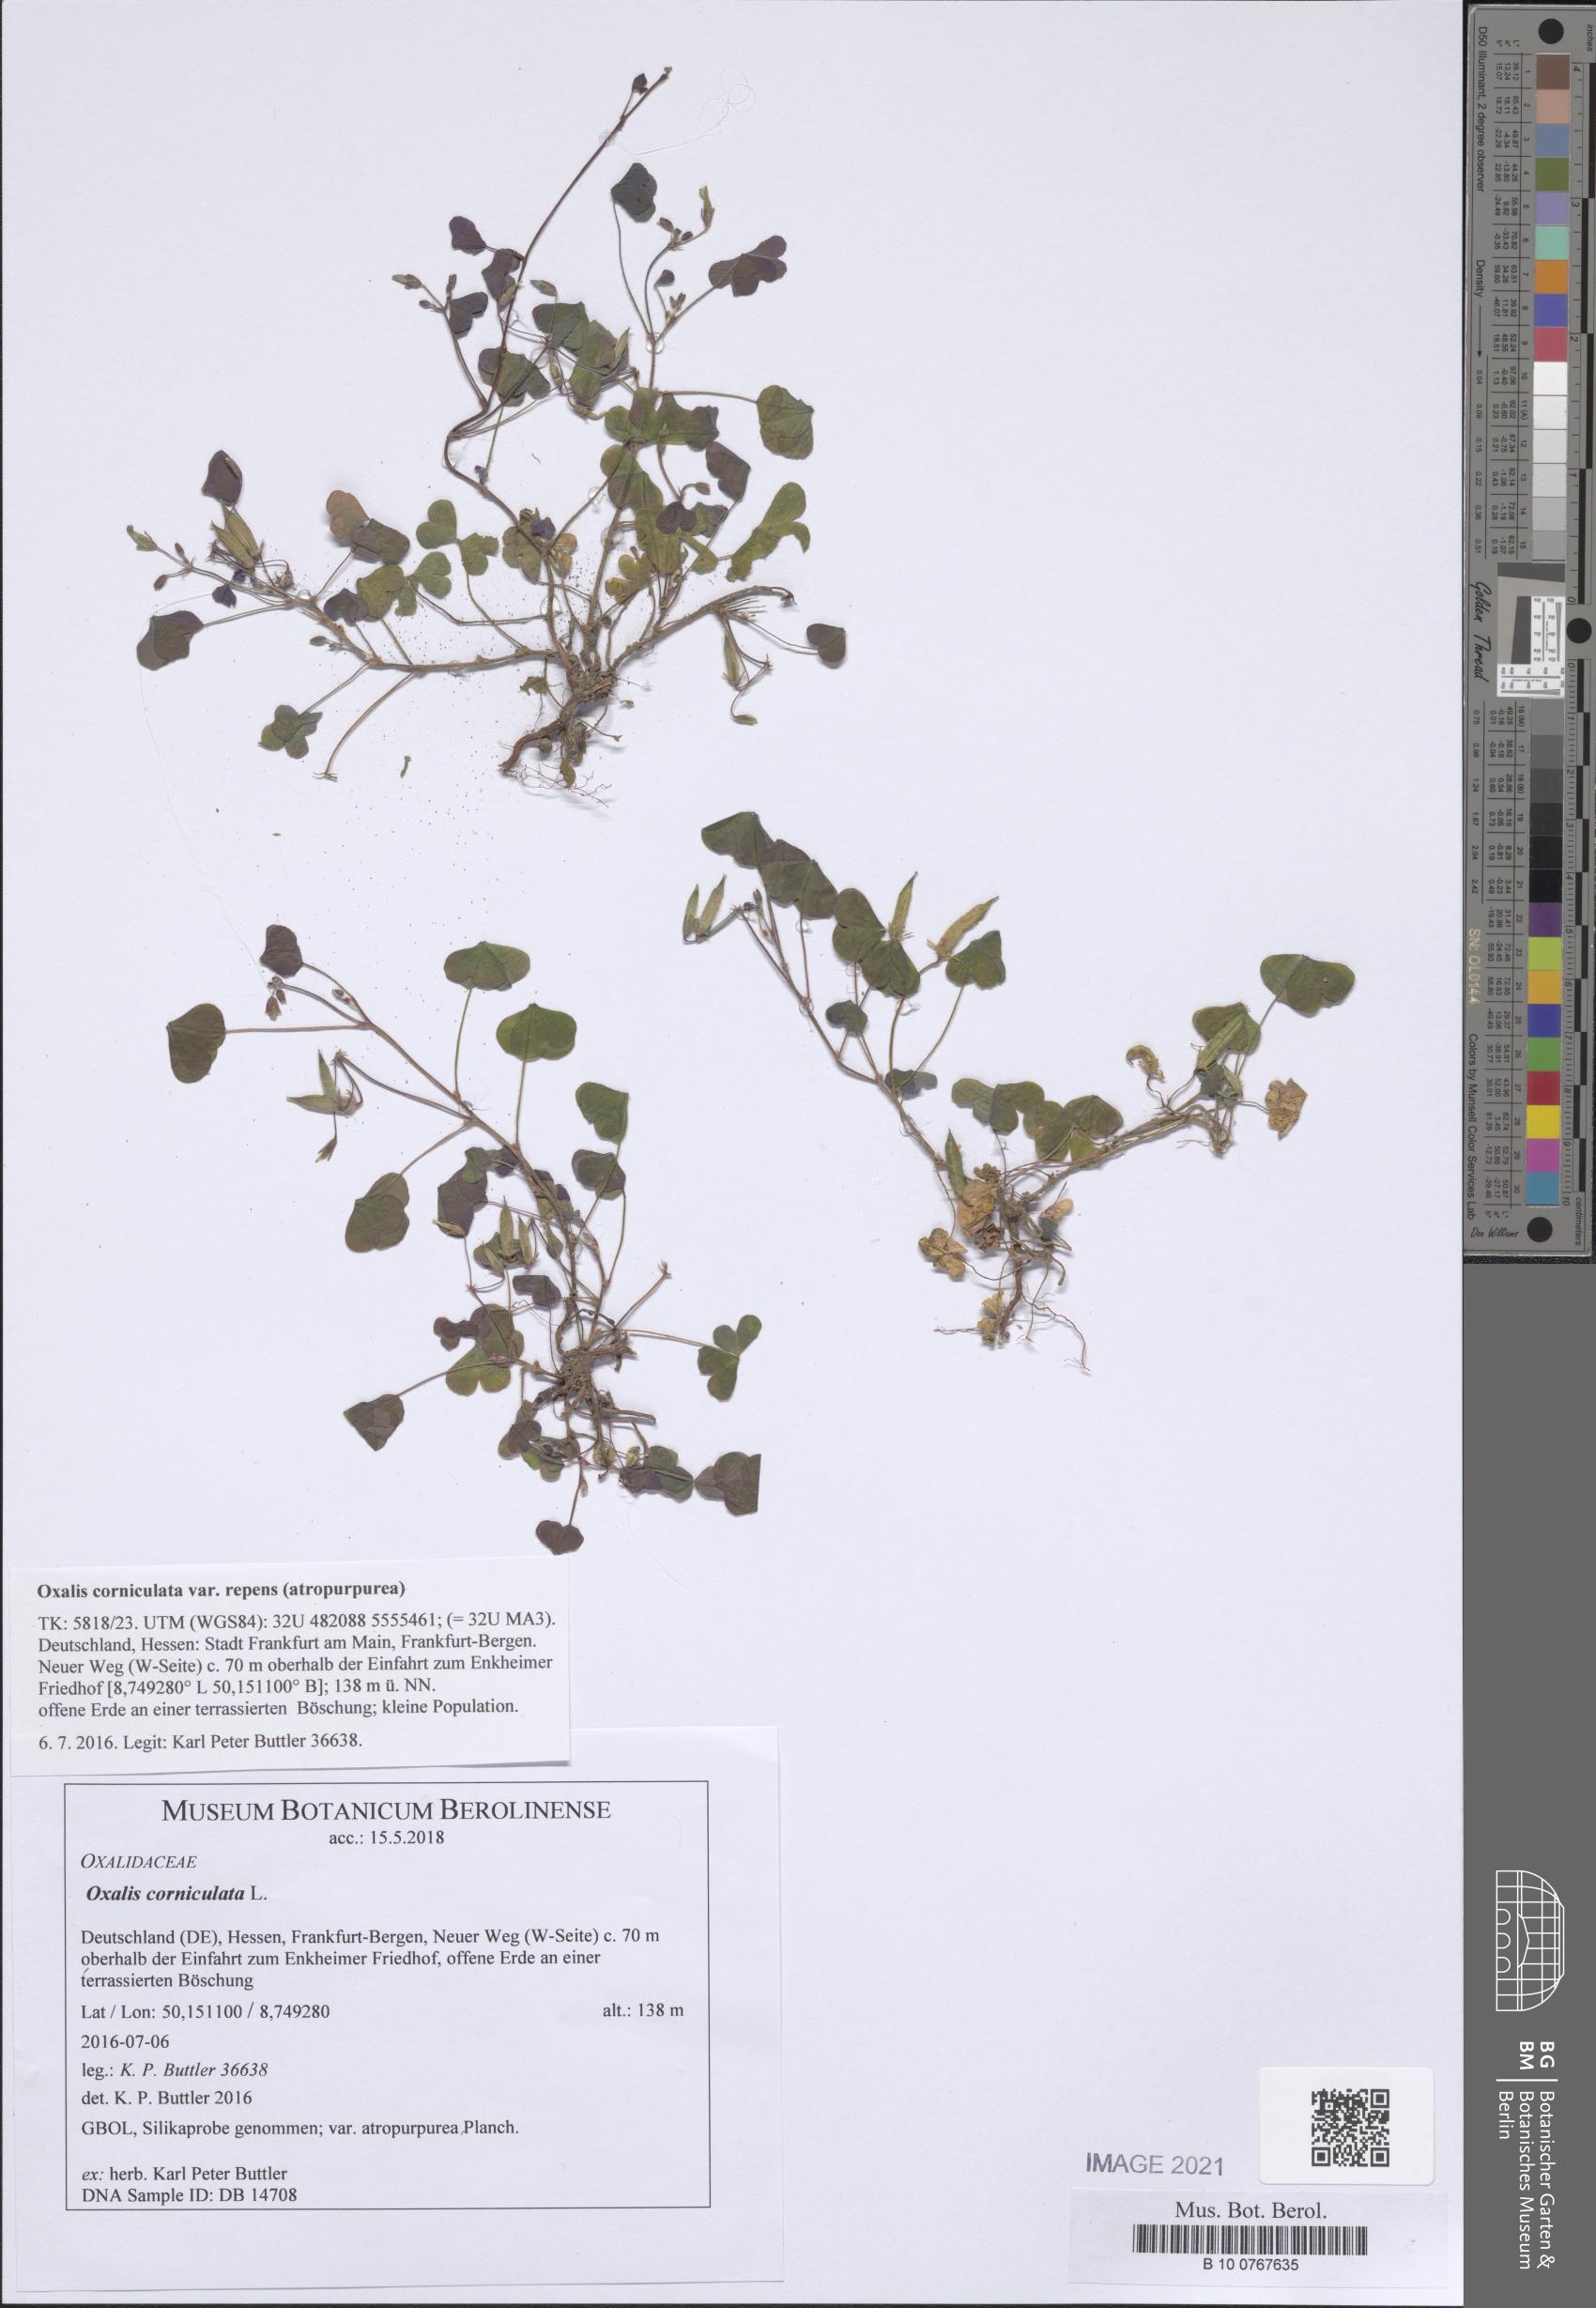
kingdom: Plantae
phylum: Tracheophyta
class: Magnoliopsida
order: Oxalidales
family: Oxalidaceae
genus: Oxalis
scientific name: Oxalis corniculata
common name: Procumbent yellow-sorrel
